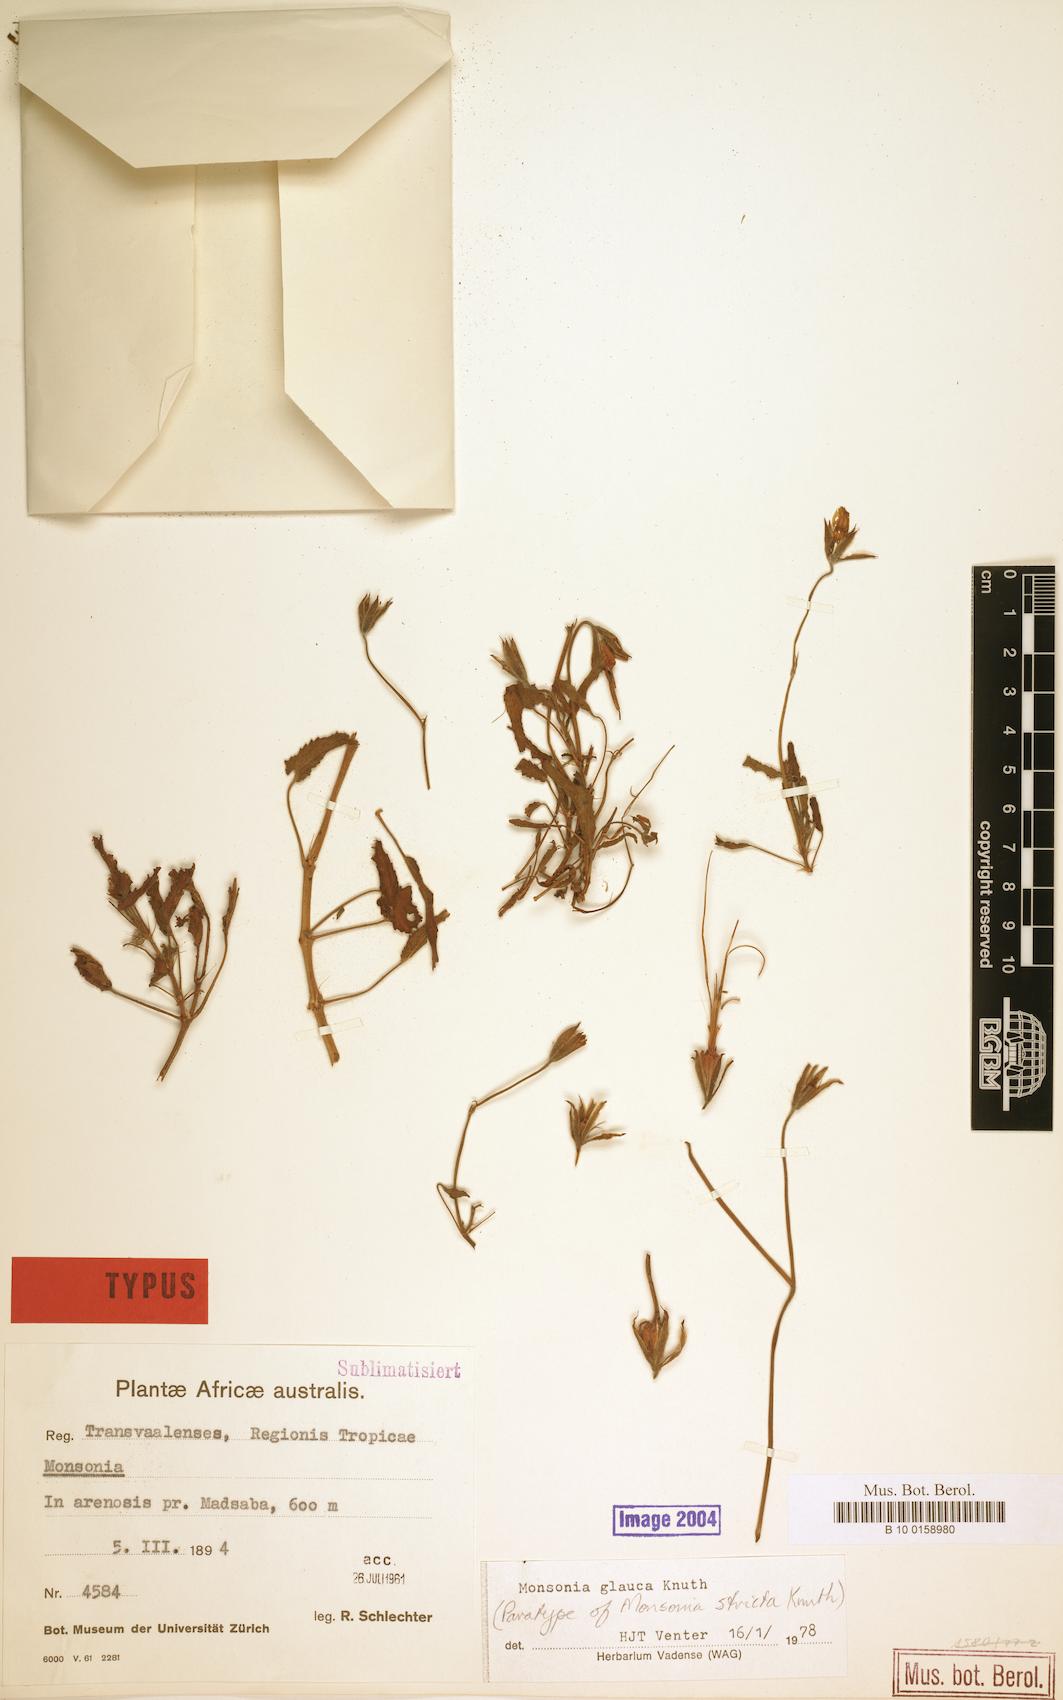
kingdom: Plantae
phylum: Tracheophyta
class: Magnoliopsida
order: Geraniales
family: Geraniaceae
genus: Monsonia
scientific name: Monsonia glauca
